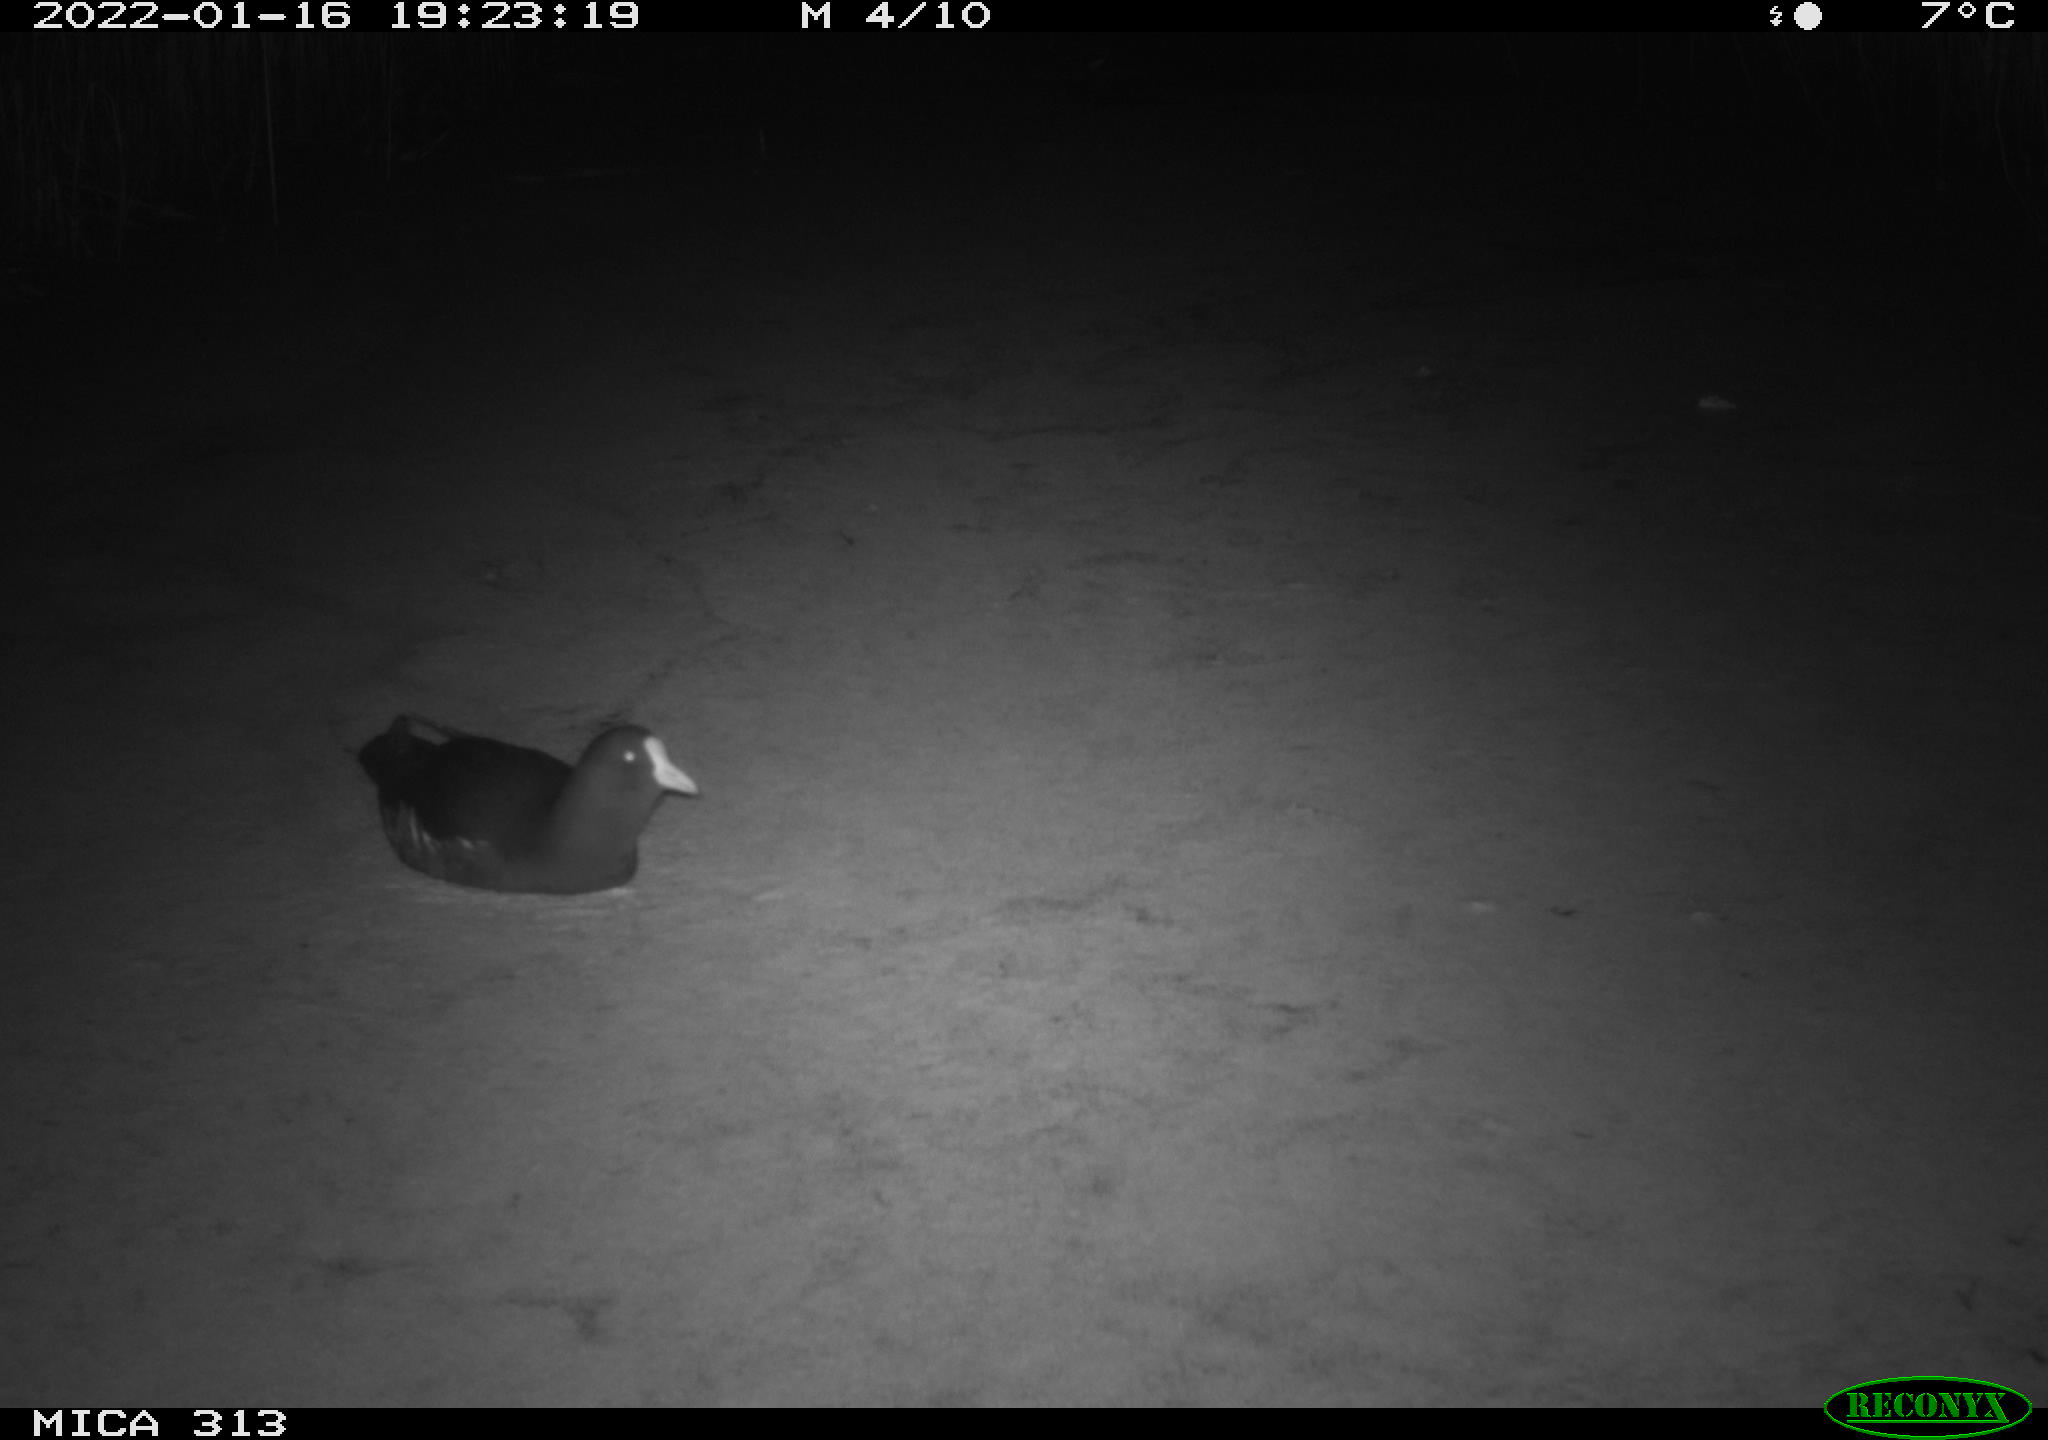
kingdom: Animalia
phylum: Chordata
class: Aves
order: Gruiformes
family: Rallidae
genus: Fulica
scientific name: Fulica atra
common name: Eurasian coot
